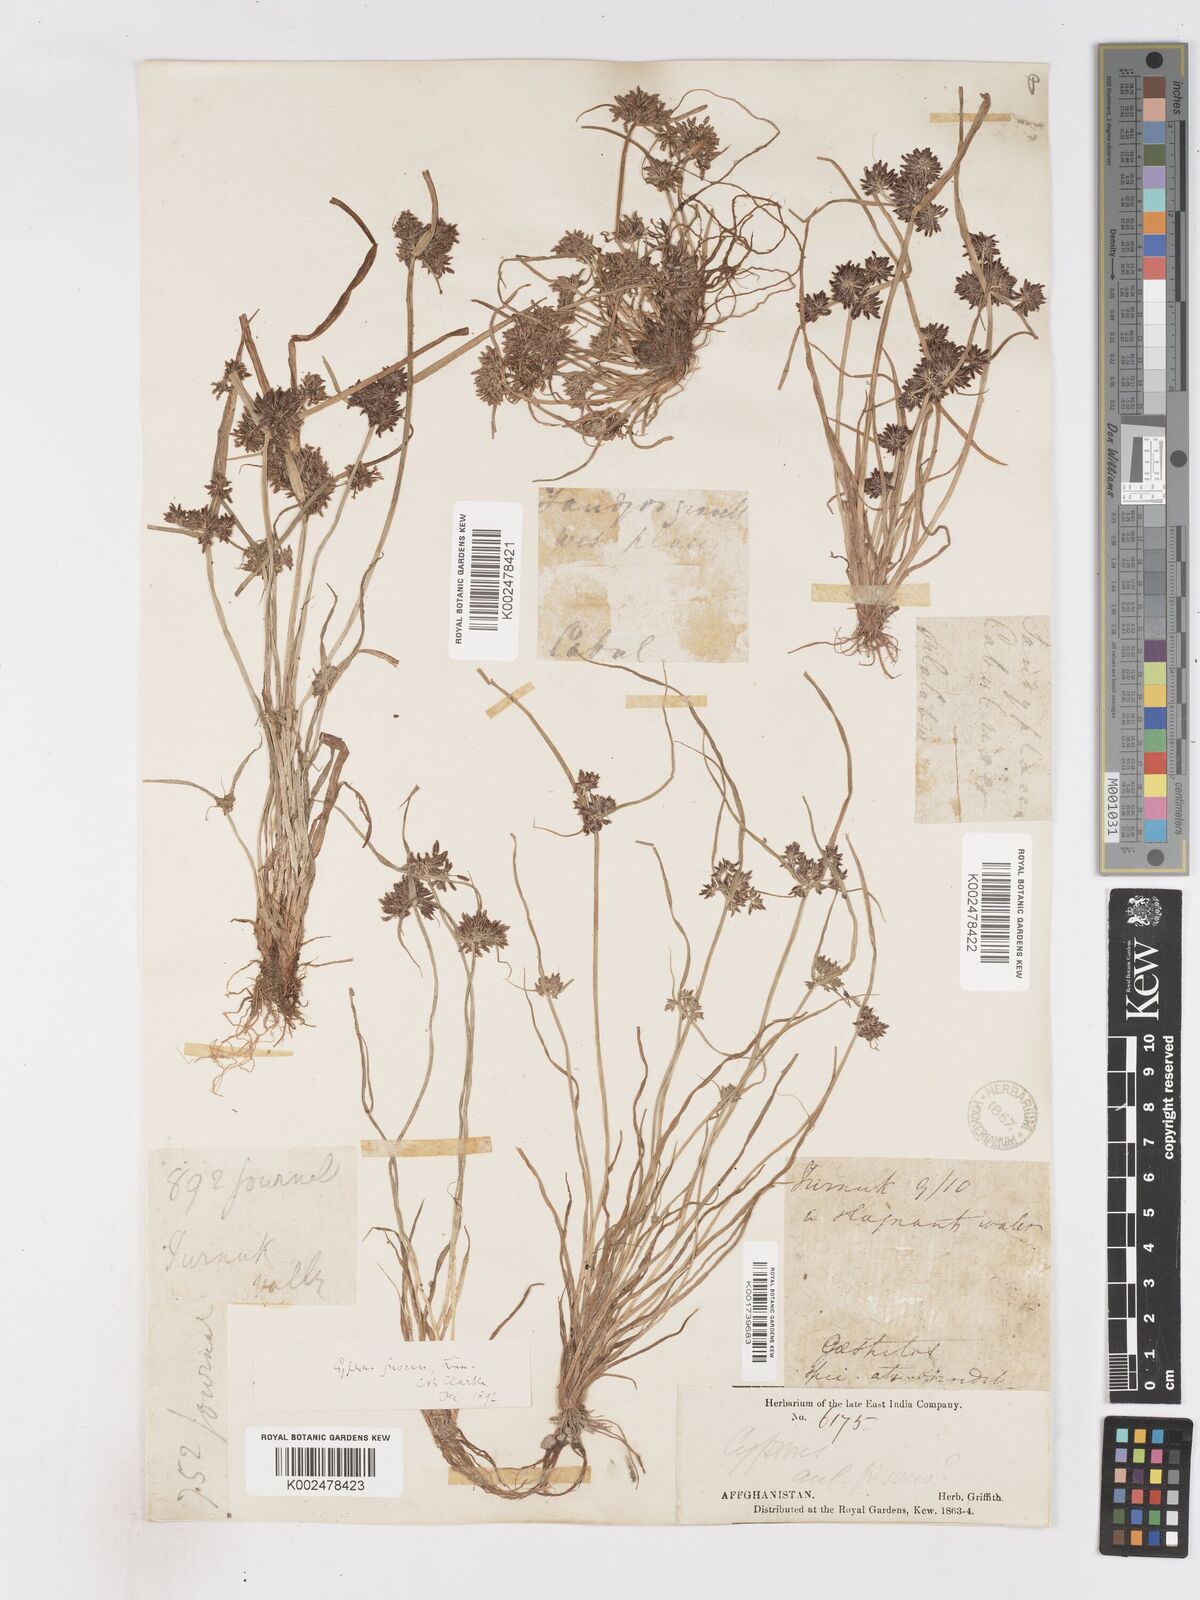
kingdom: Plantae
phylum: Tracheophyta
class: Liliopsida
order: Poales
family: Cyperaceae
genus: Cyperus
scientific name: Cyperus fuscus
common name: Brown galingale
